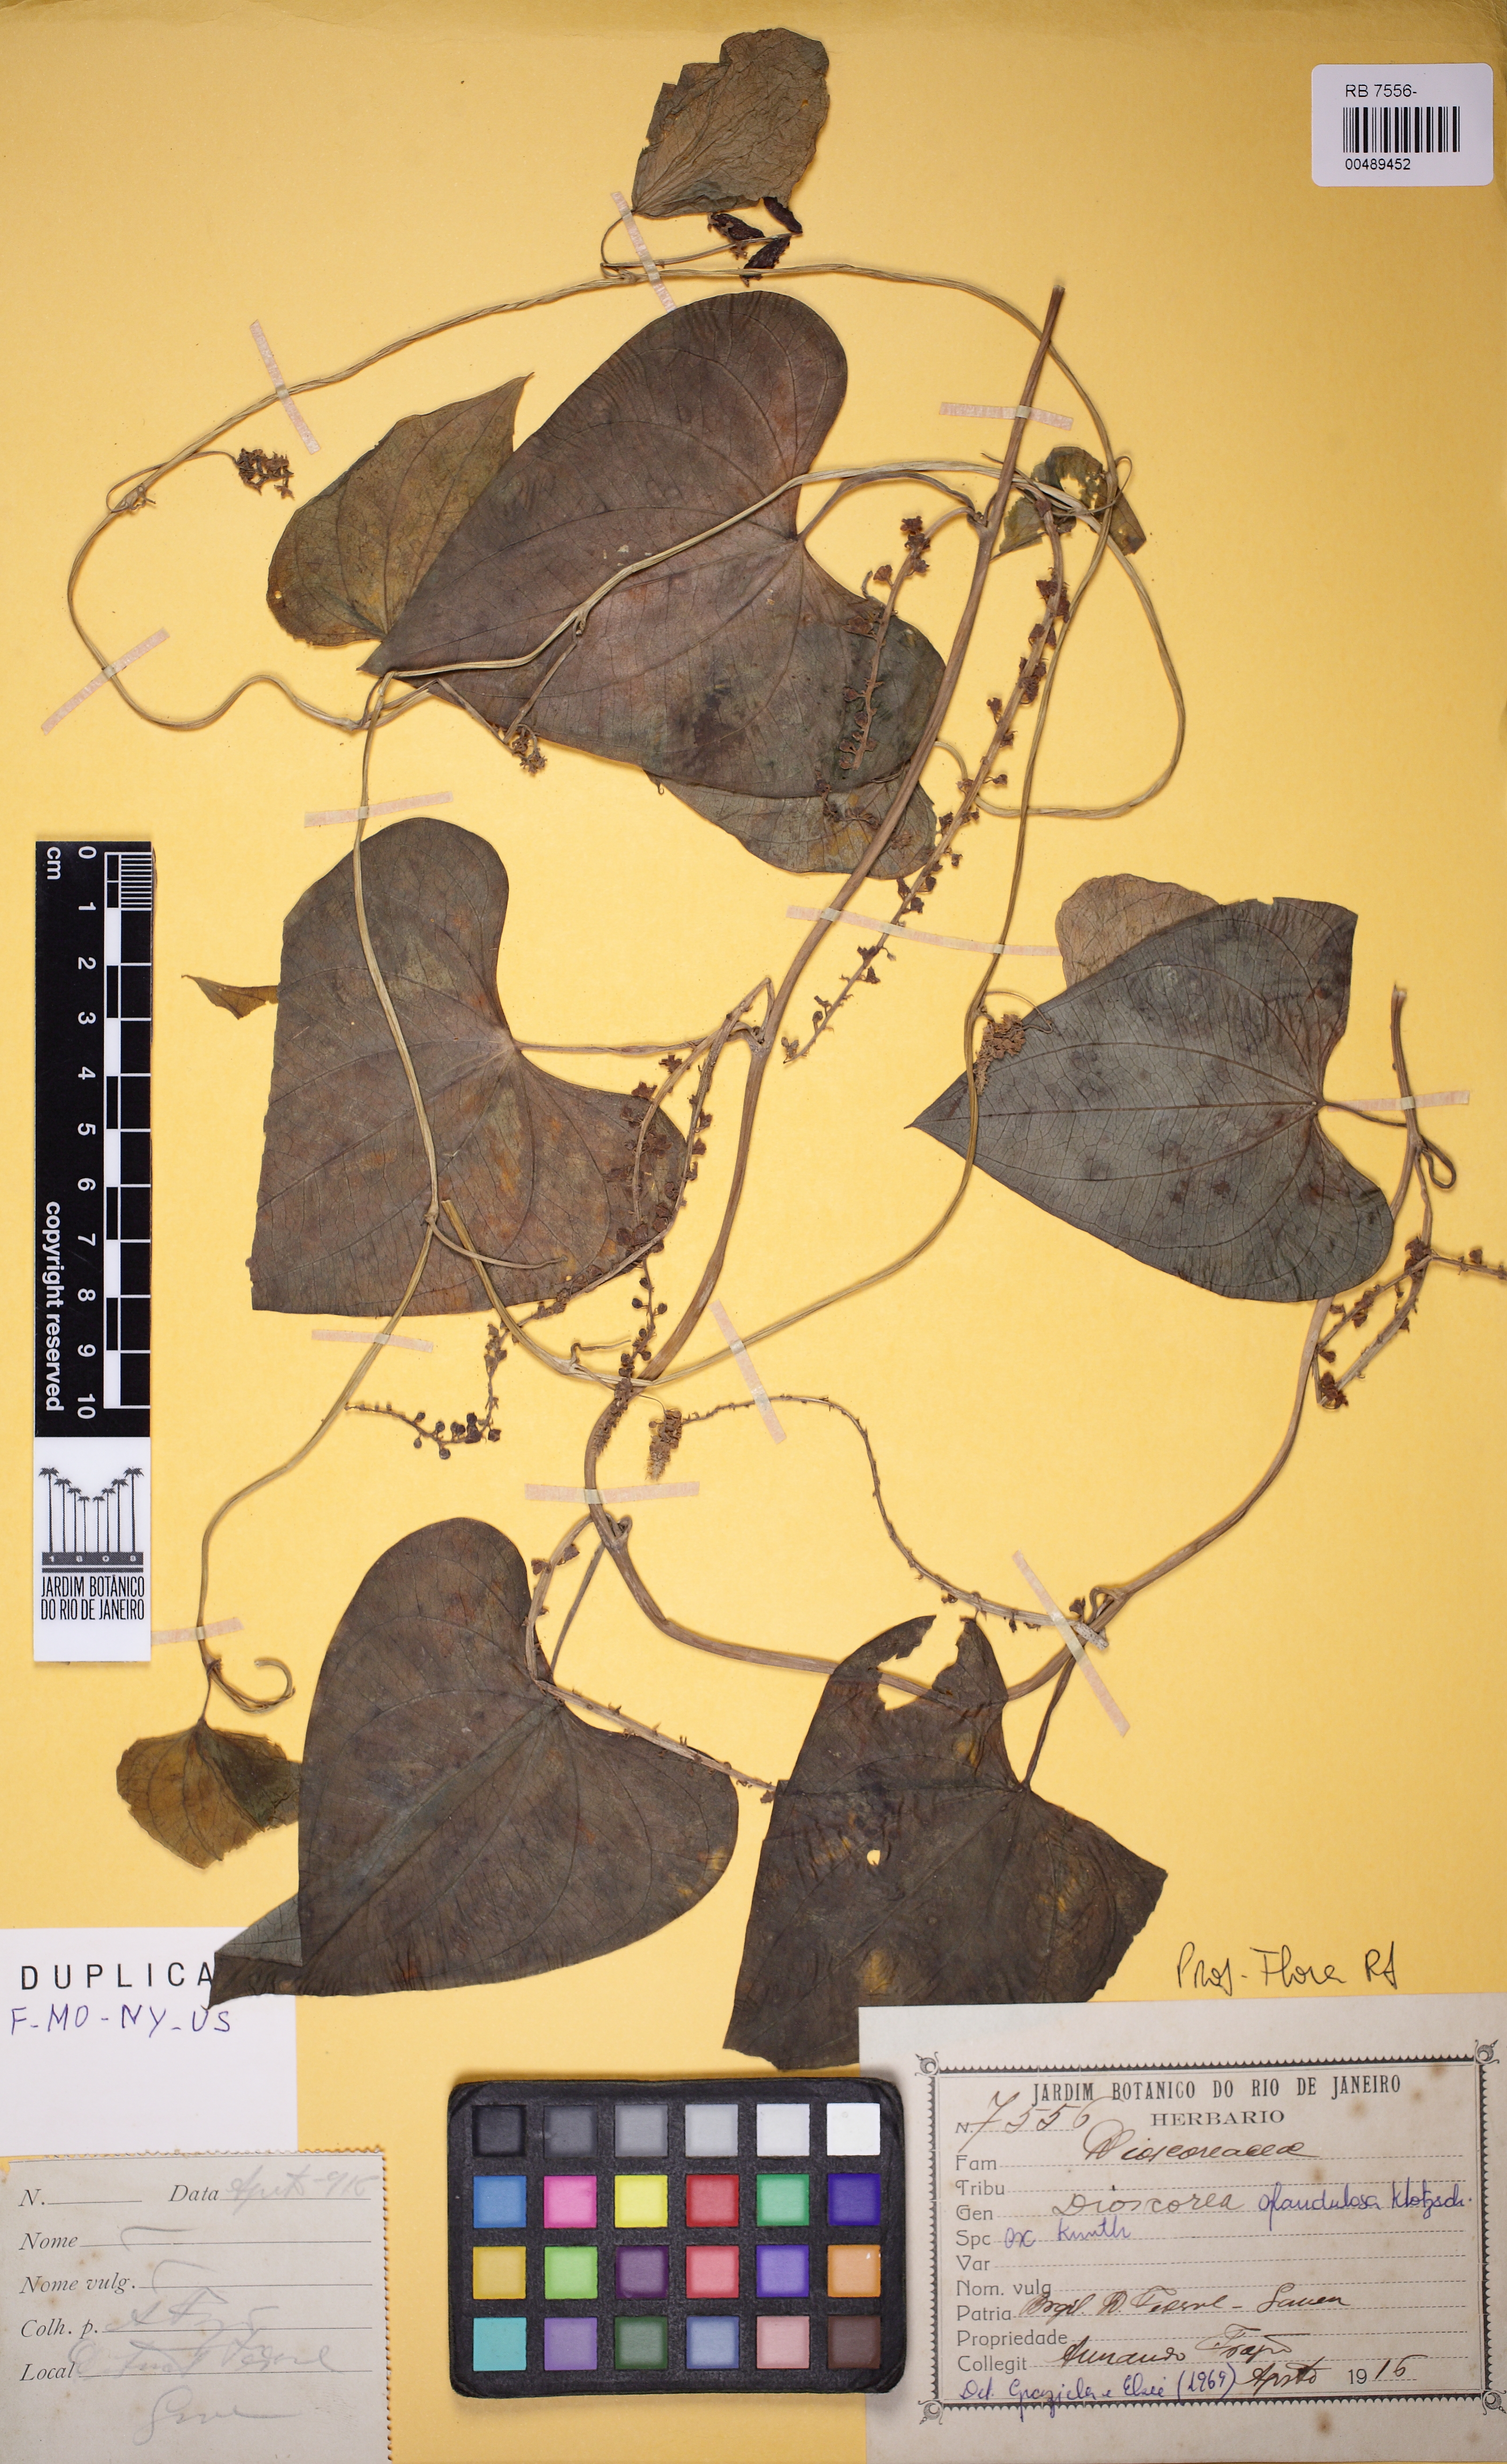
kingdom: Plantae
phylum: Tracheophyta
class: Liliopsida
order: Dioscoreales
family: Dioscoreaceae
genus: Dioscorea
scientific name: Dioscorea
